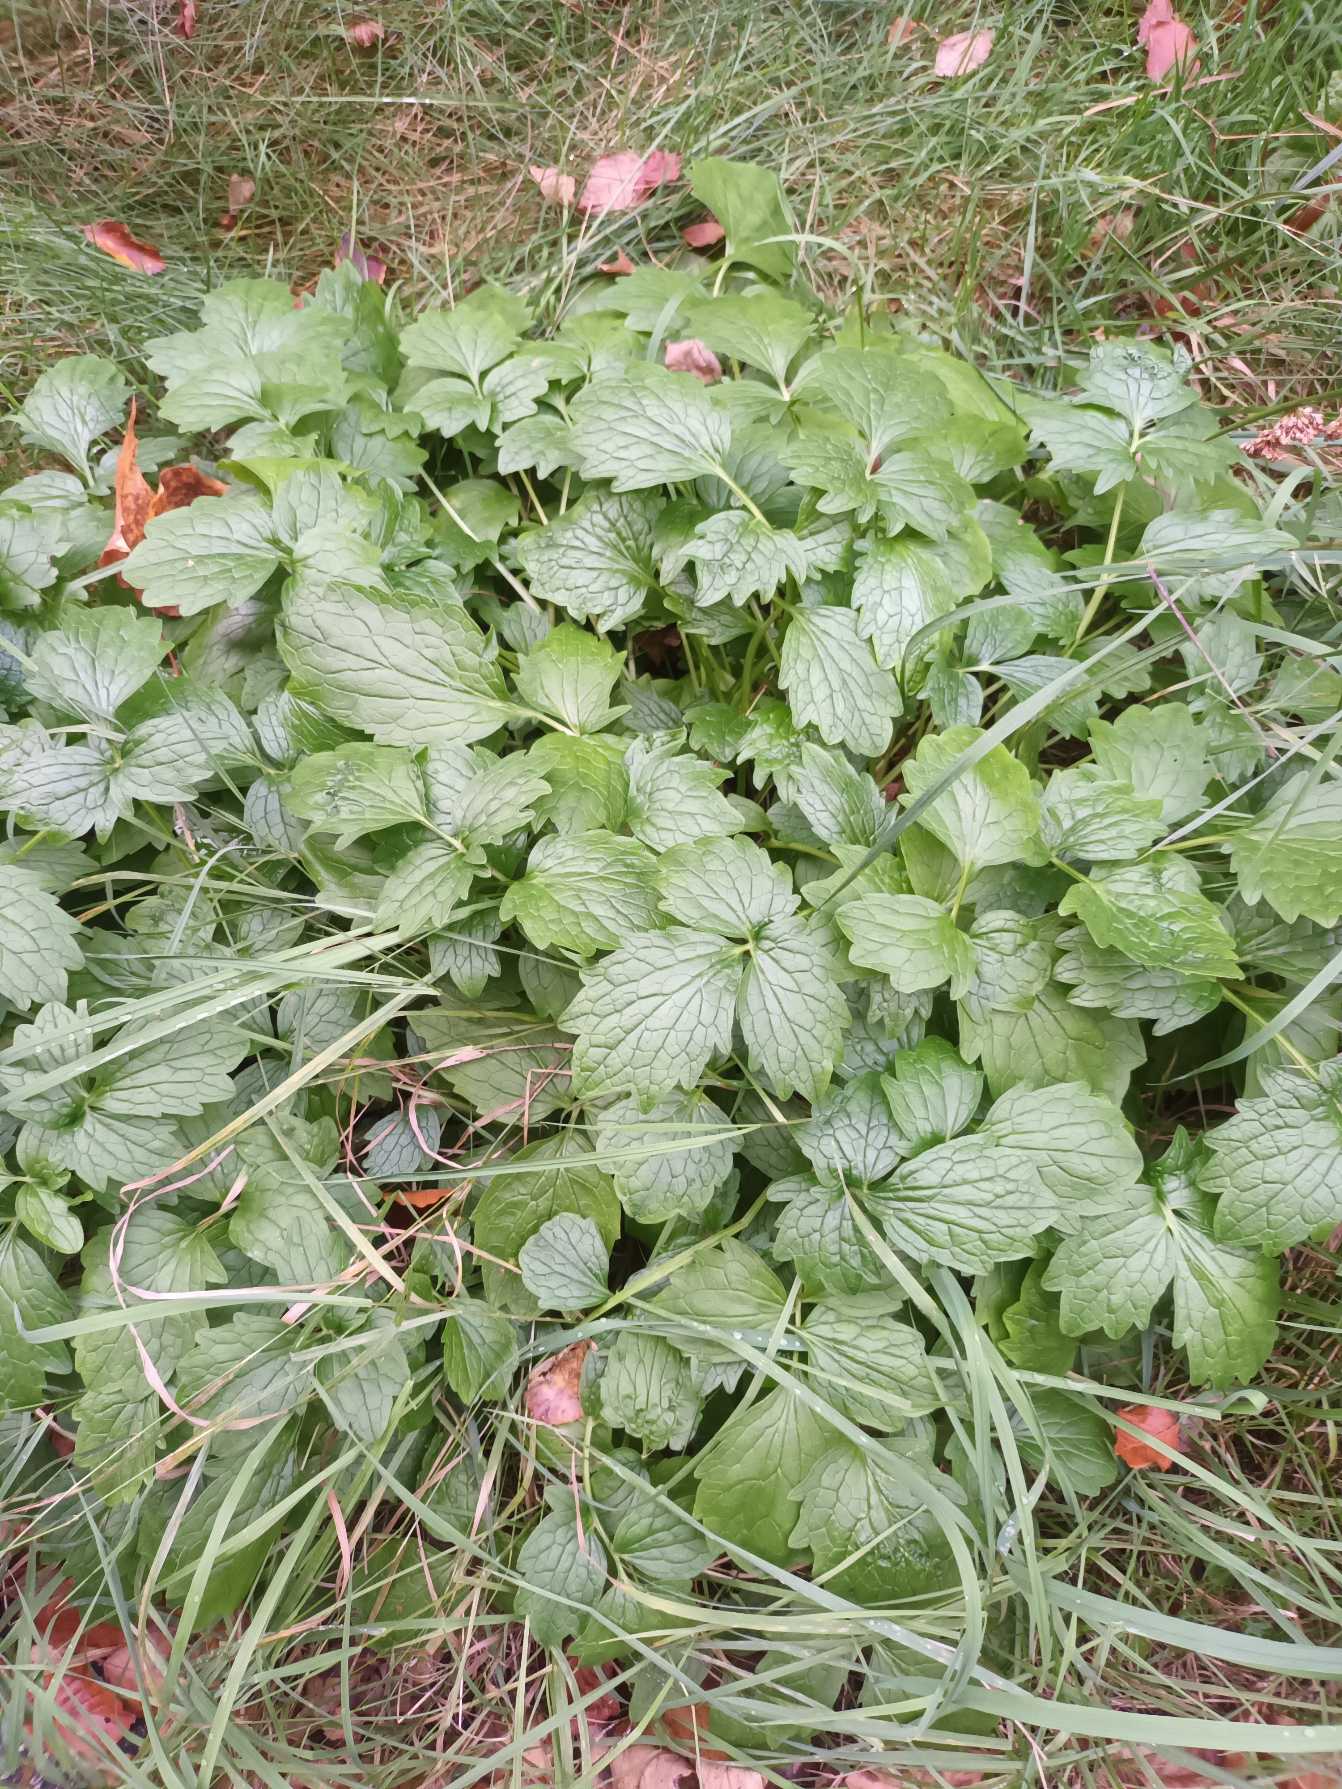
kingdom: Plantae
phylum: Tracheophyta
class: Magnoliopsida
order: Dipsacales
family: Caprifoliaceae
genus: Valeriana
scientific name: Valeriana sambucifolia
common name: Hyldebladet baldrian
